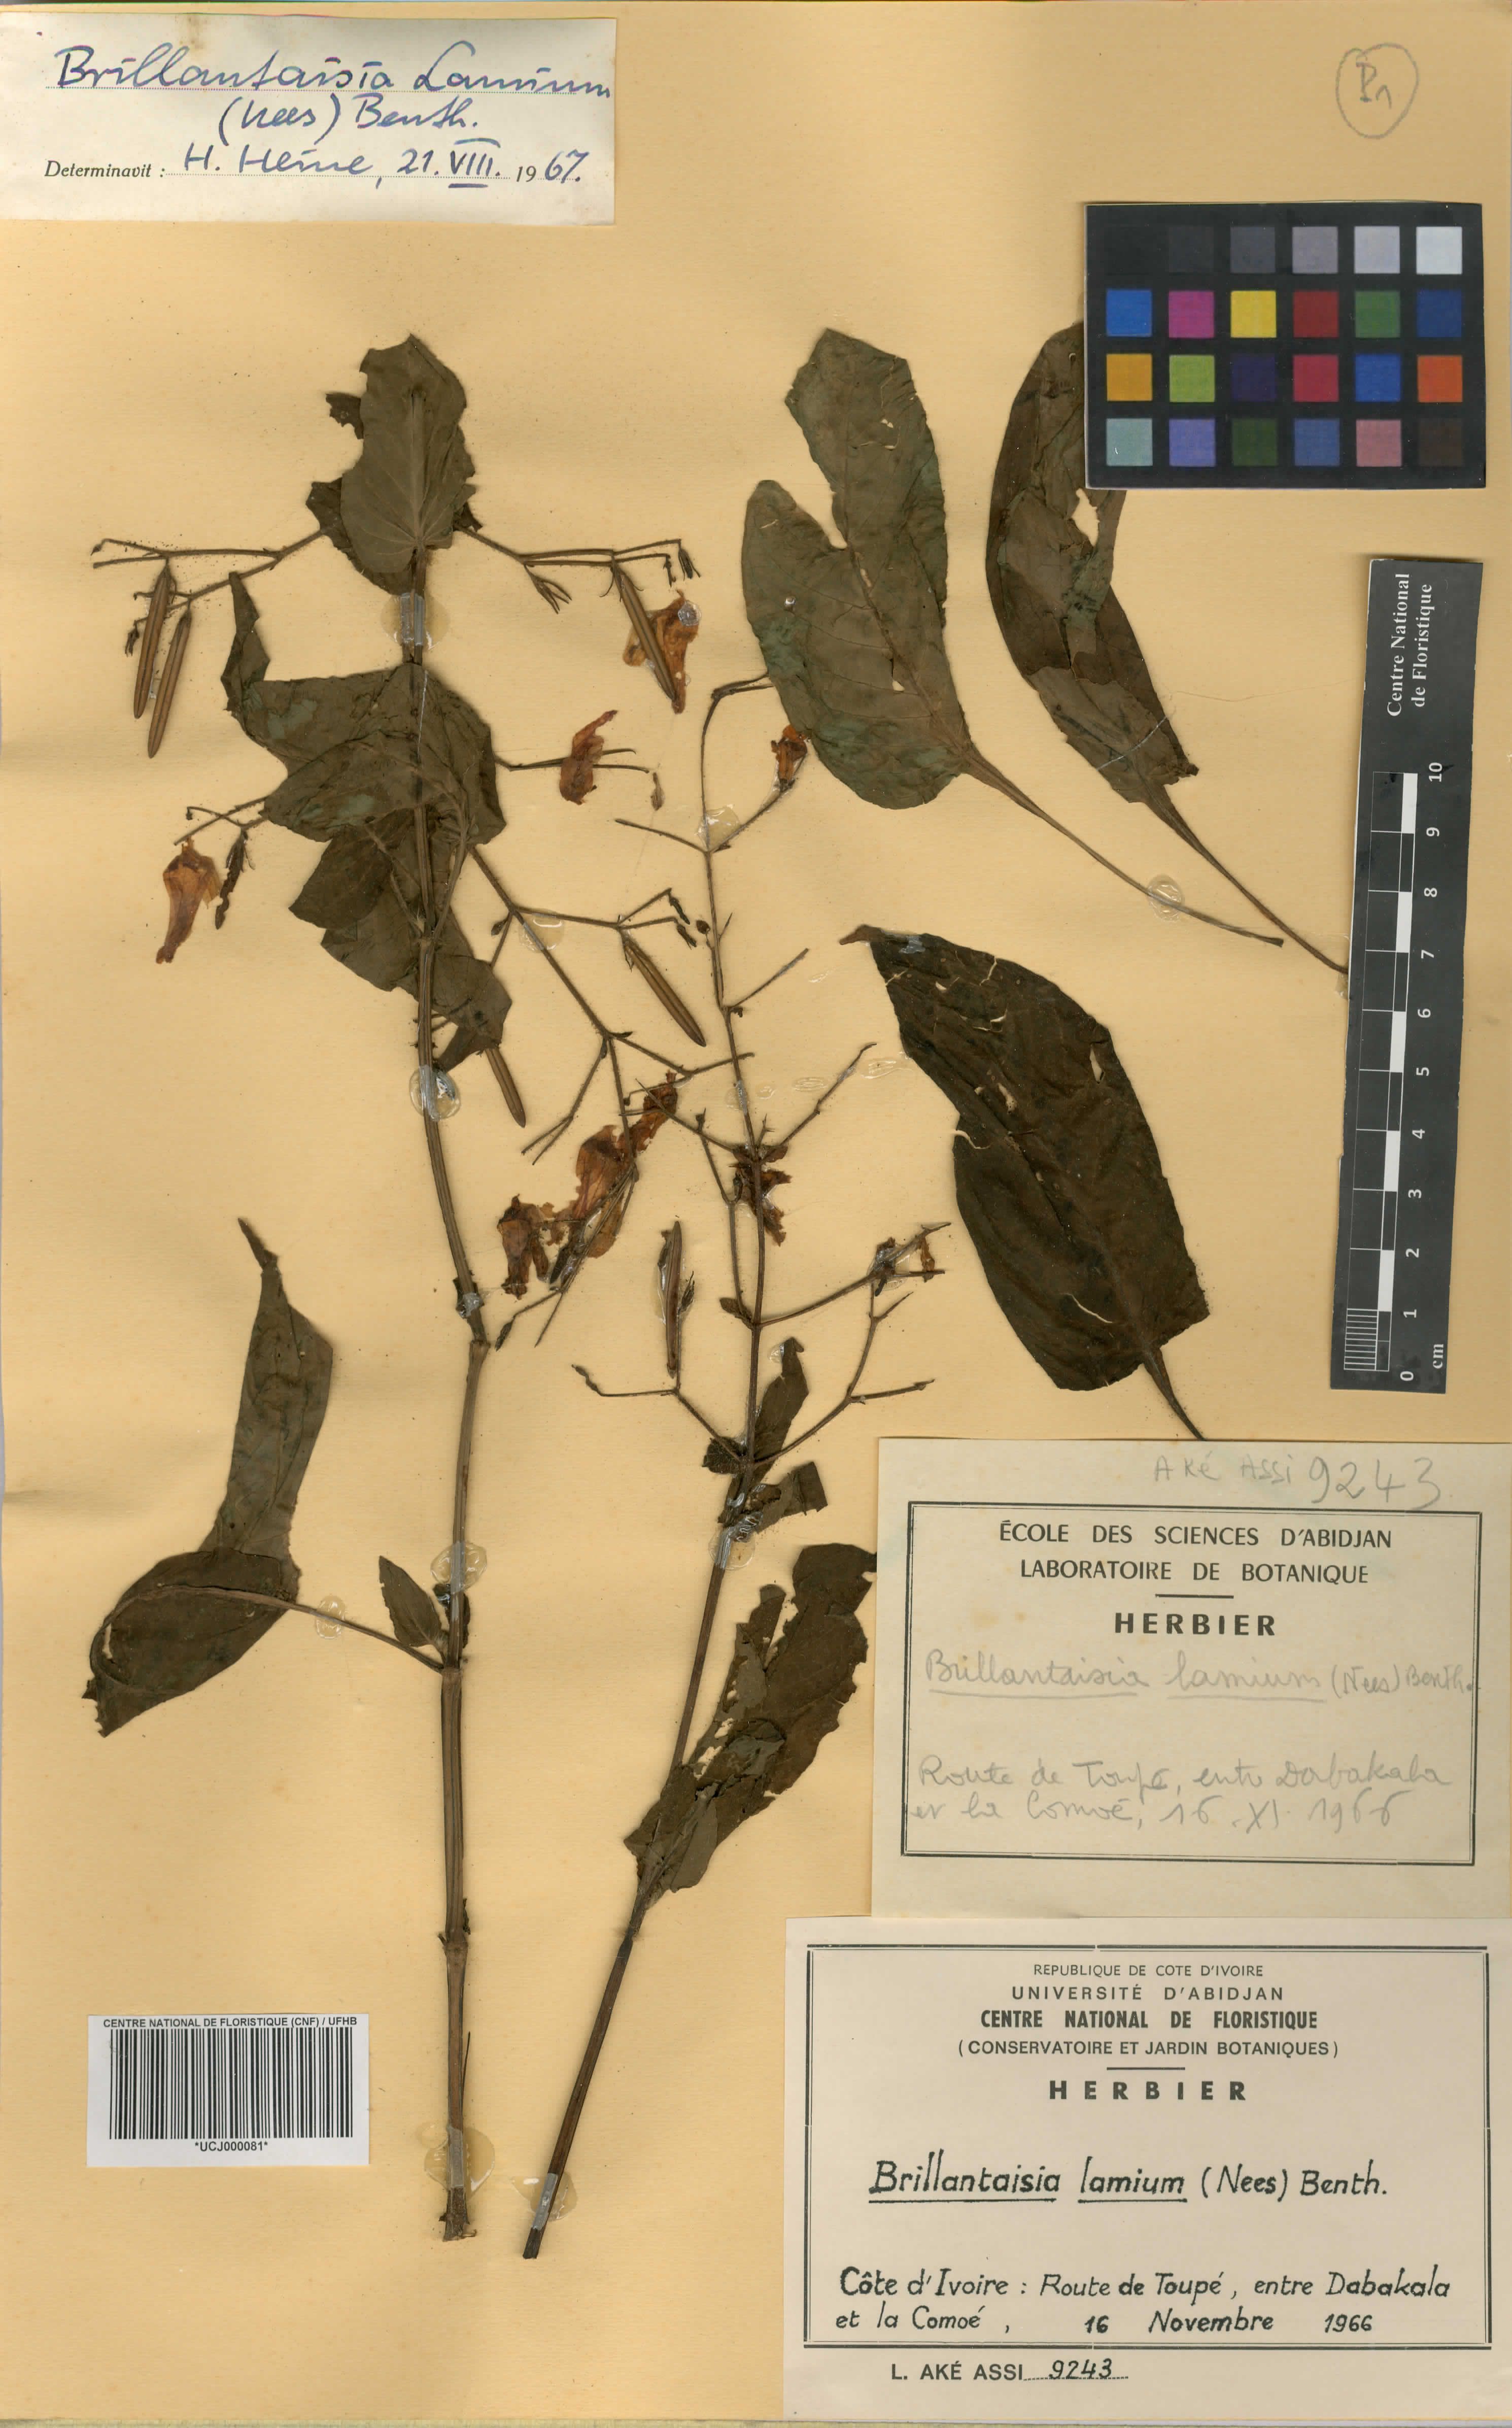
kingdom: Plantae
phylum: Tracheophyta
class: Magnoliopsida
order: Lamiales
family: Acanthaceae
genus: Brillantaisia
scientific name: Brillantaisia lamium
